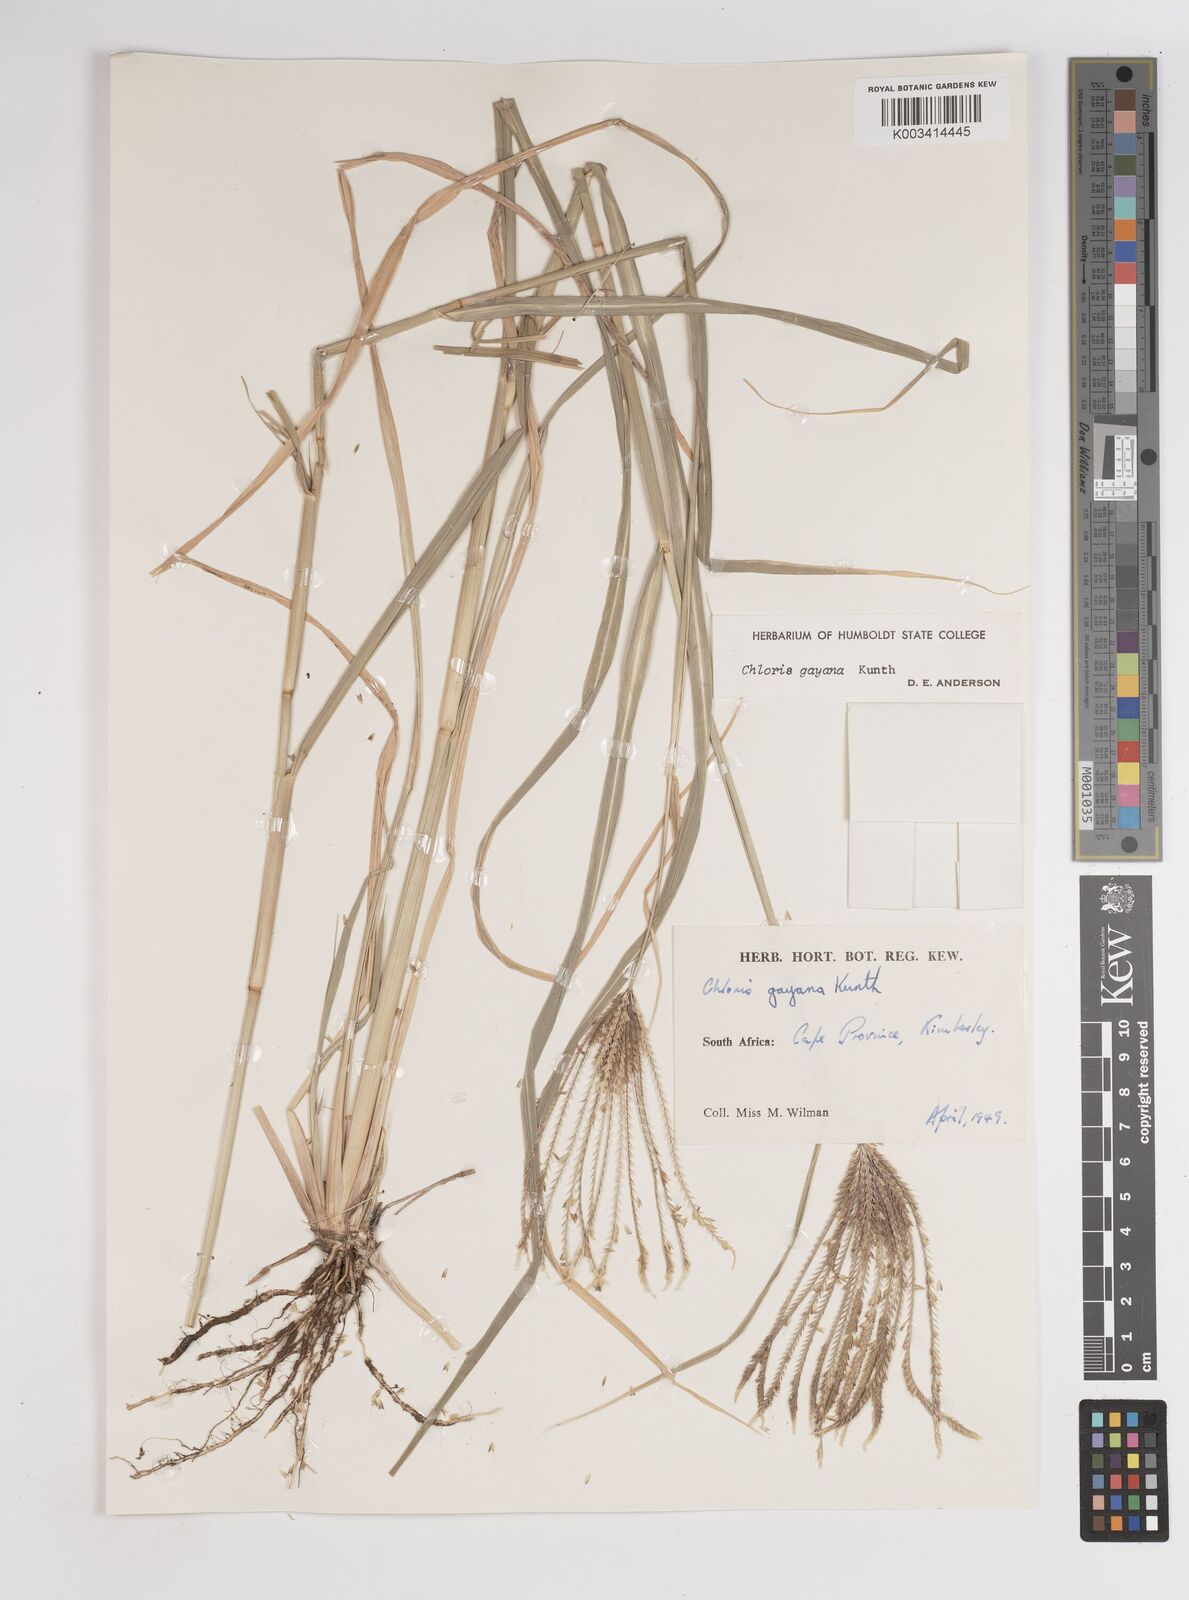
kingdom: Plantae
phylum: Tracheophyta
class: Liliopsida
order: Poales
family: Poaceae
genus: Chloris
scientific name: Chloris gayana
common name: Rhodes grass
